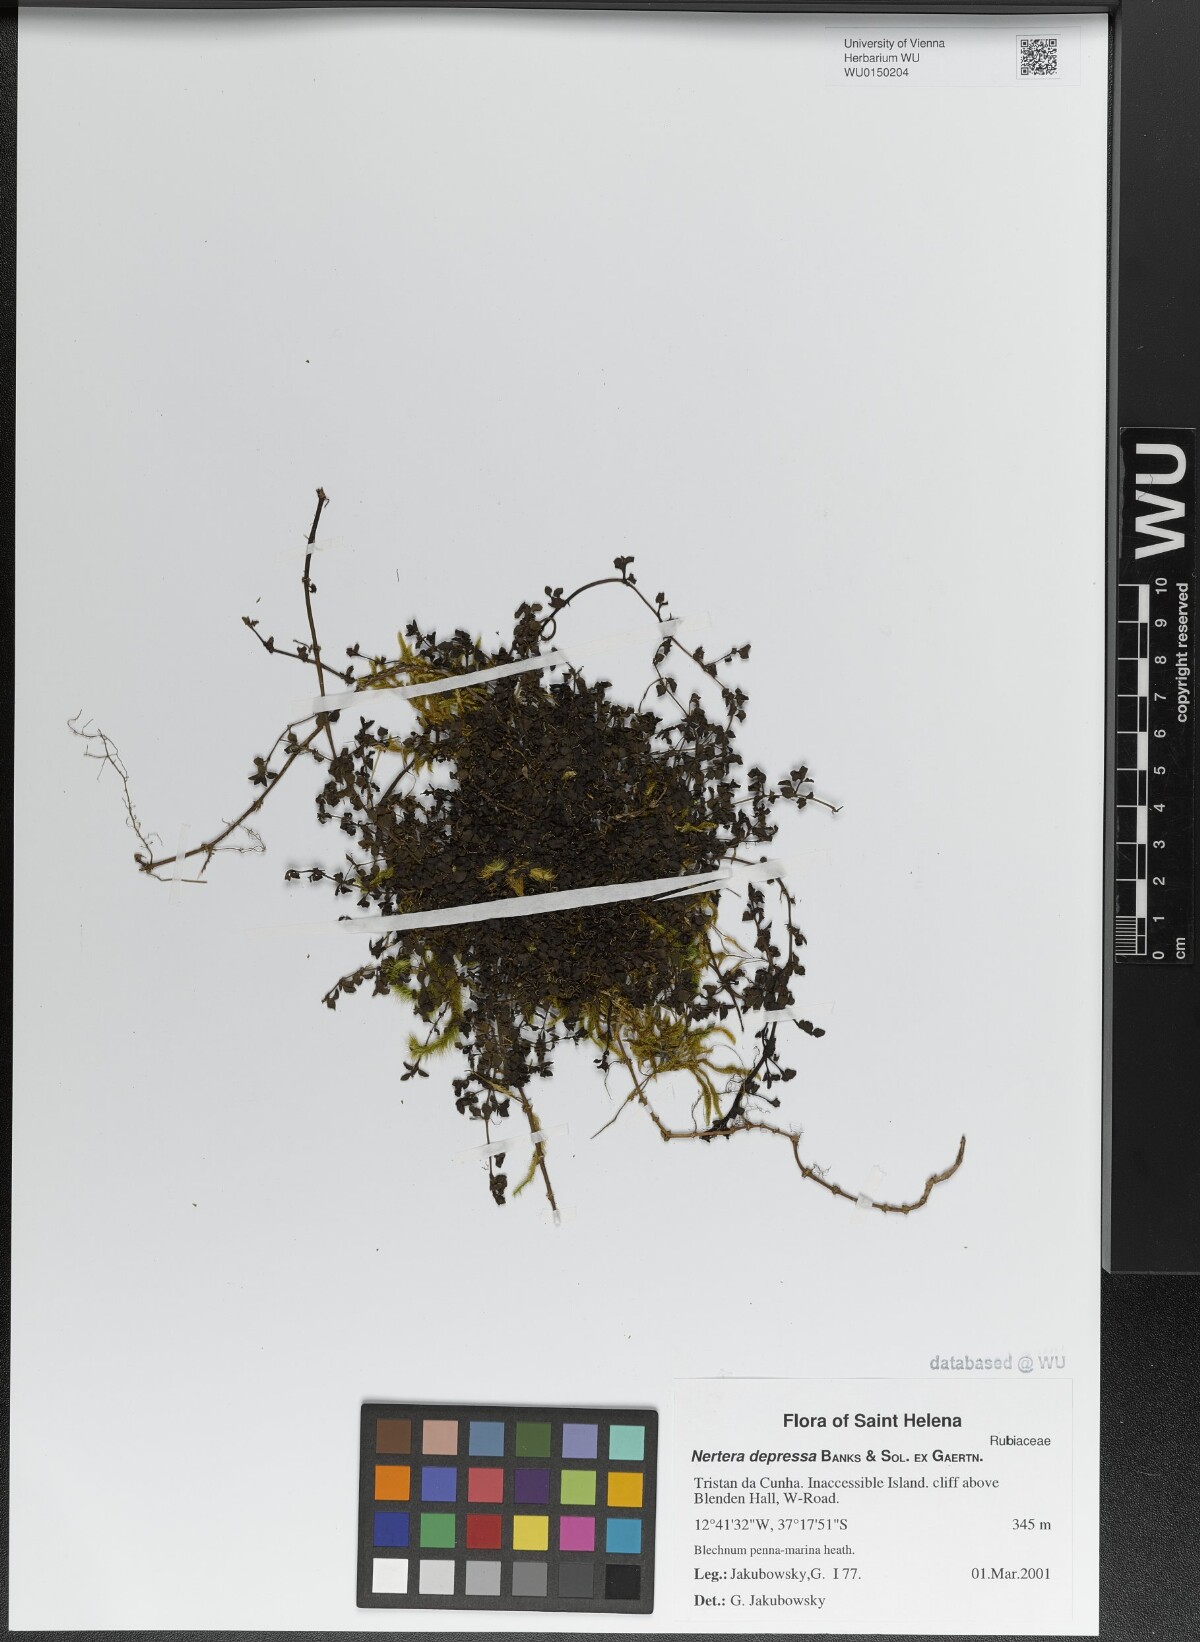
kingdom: Plantae
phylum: Tracheophyta
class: Magnoliopsida
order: Gentianales
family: Rubiaceae
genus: Nertera
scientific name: Nertera granadensis
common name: Beadplant
